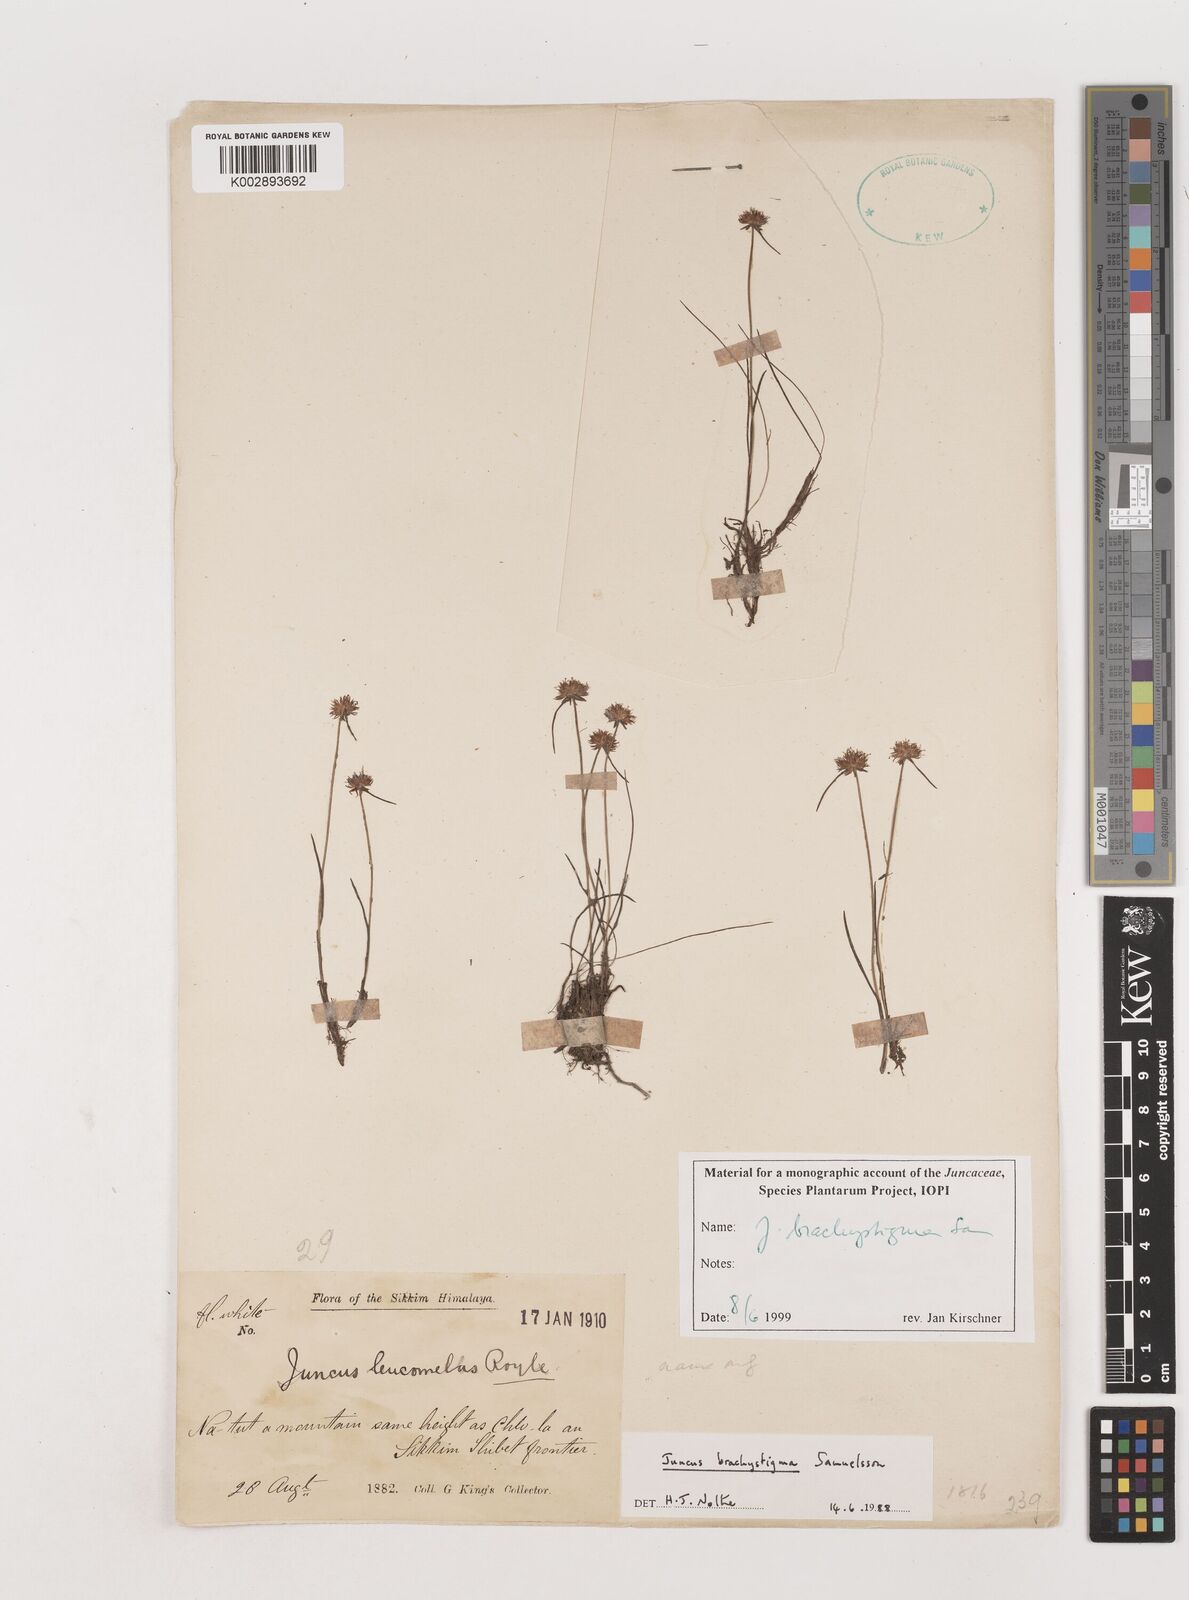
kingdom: Plantae
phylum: Tracheophyta
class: Liliopsida
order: Poales
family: Juncaceae
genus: Juncus
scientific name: Juncus brachystigma
